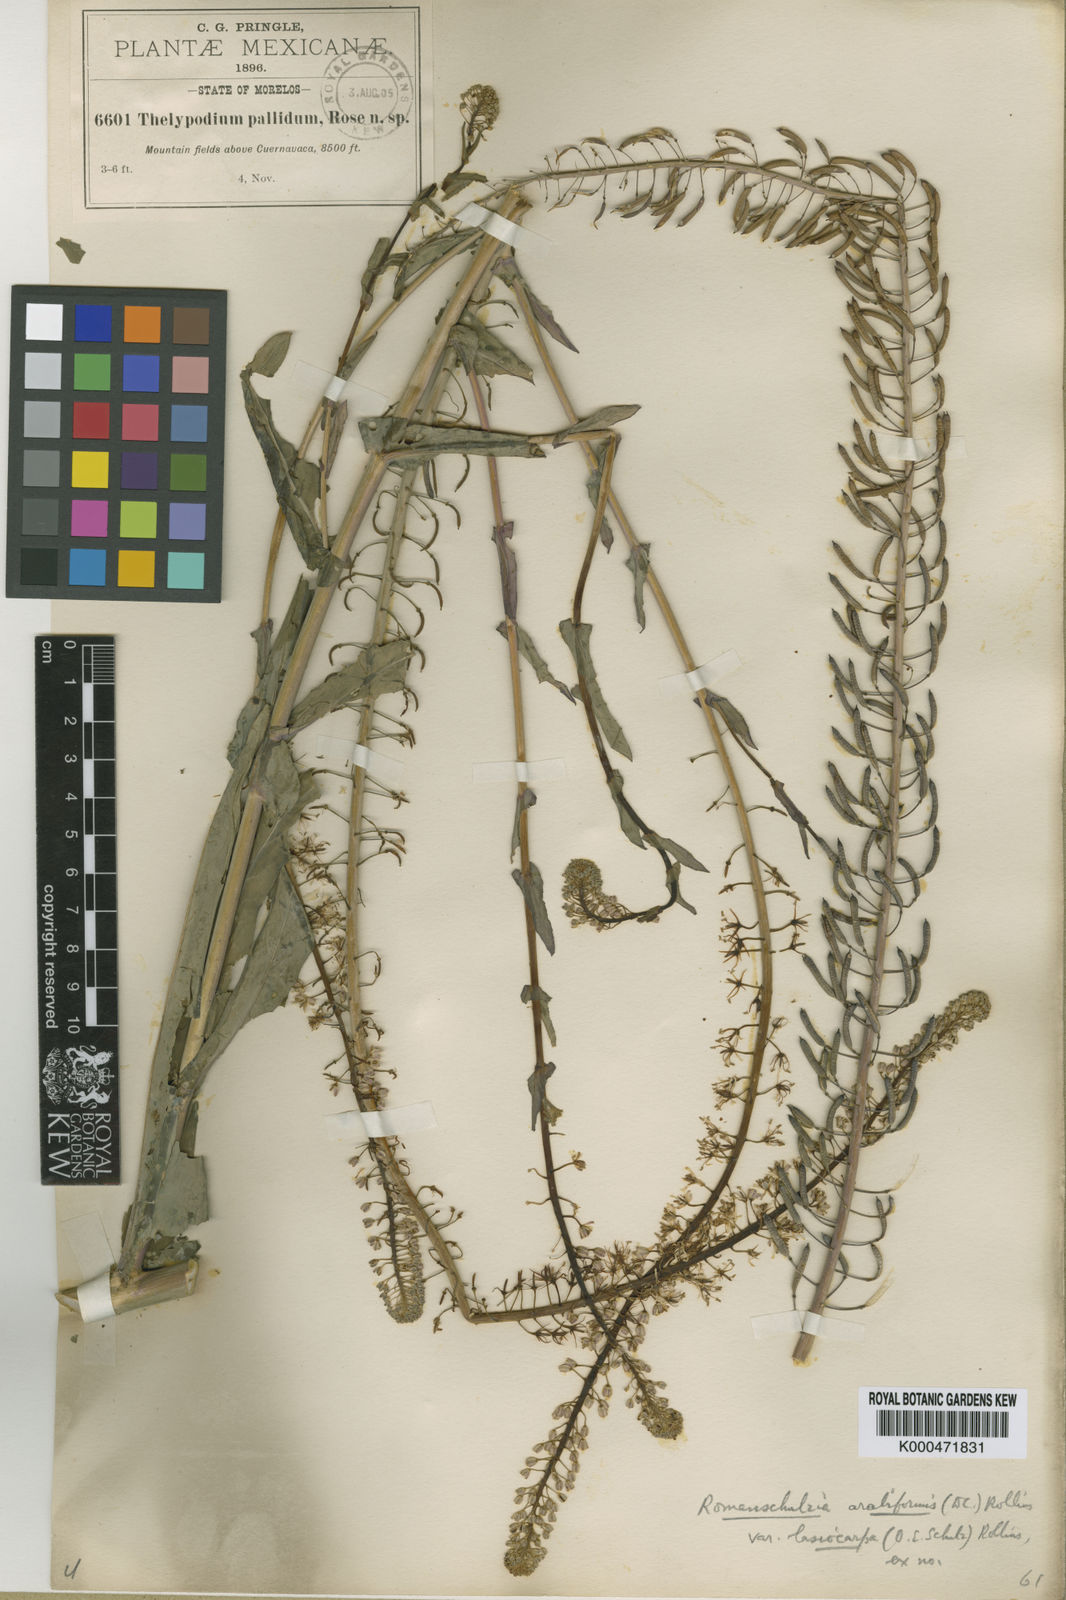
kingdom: Plantae
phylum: Tracheophyta
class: Magnoliopsida
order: Brassicales
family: Brassicaceae
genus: Romanschulzia
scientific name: Romanschulzia arabiformis
